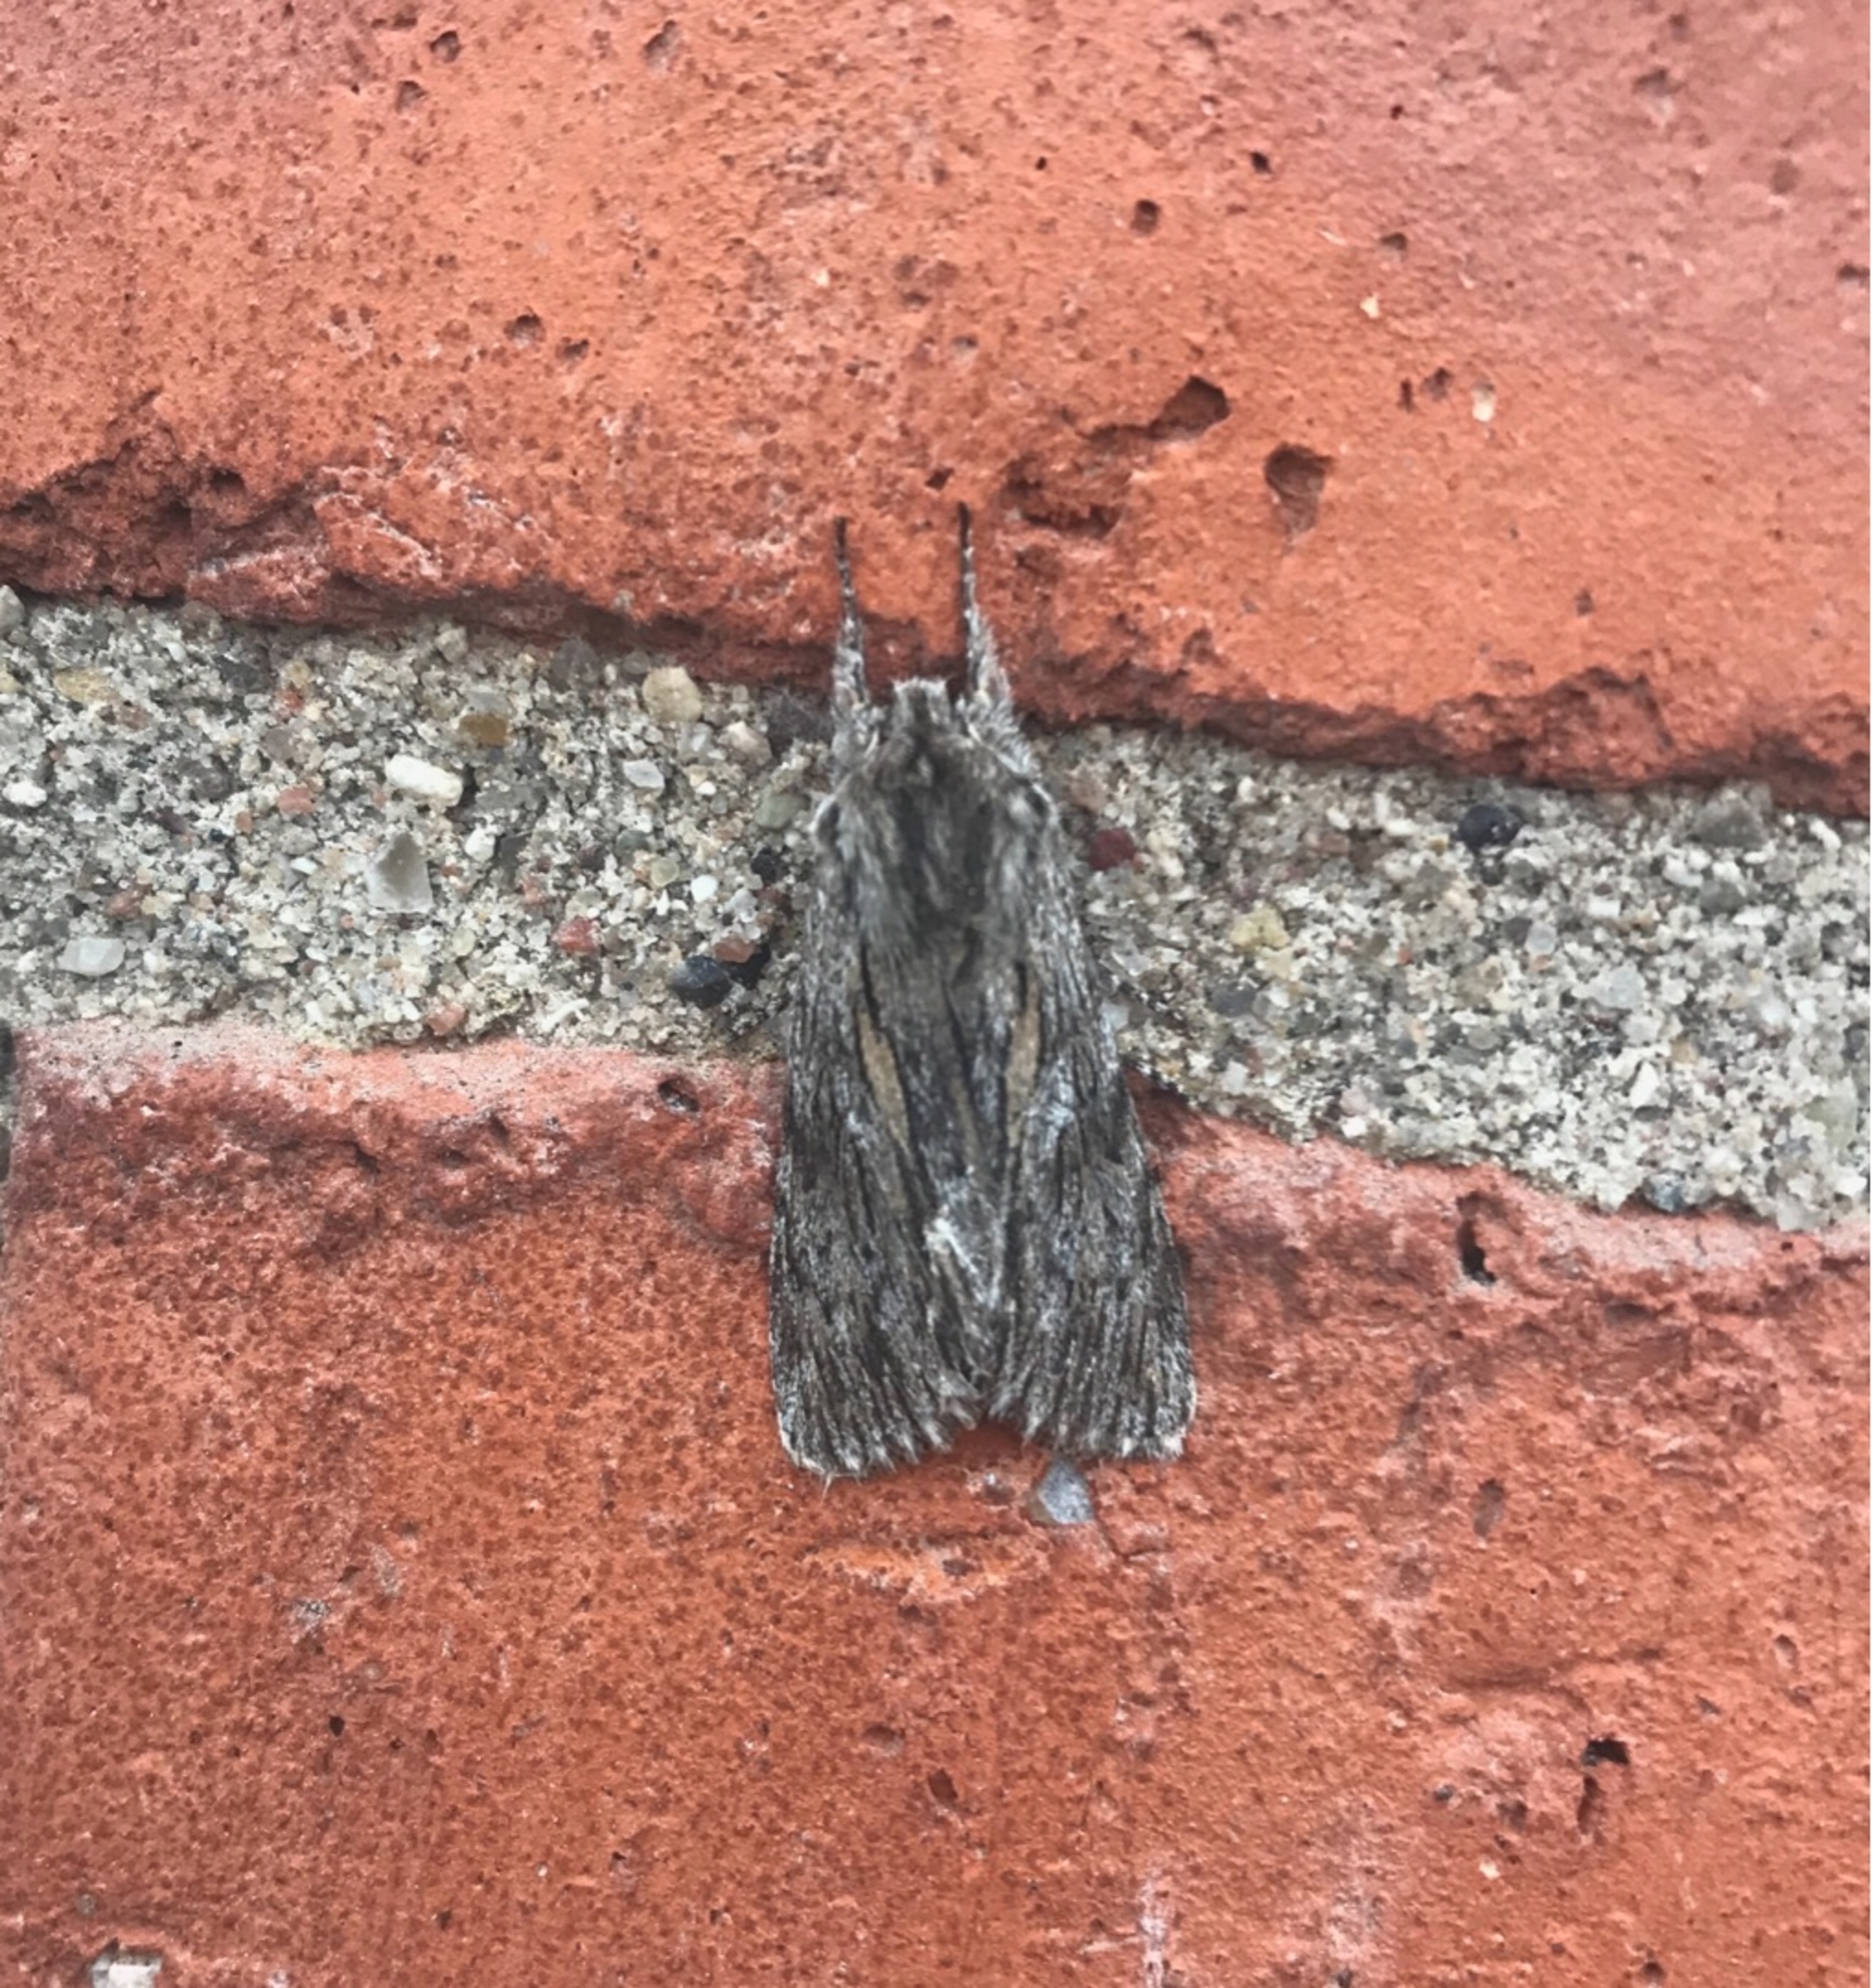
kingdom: Animalia
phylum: Arthropoda
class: Insecta
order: Lepidoptera
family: Noctuidae
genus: Asteroscopus
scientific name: Asteroscopus sphinx
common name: Sfinksugle
